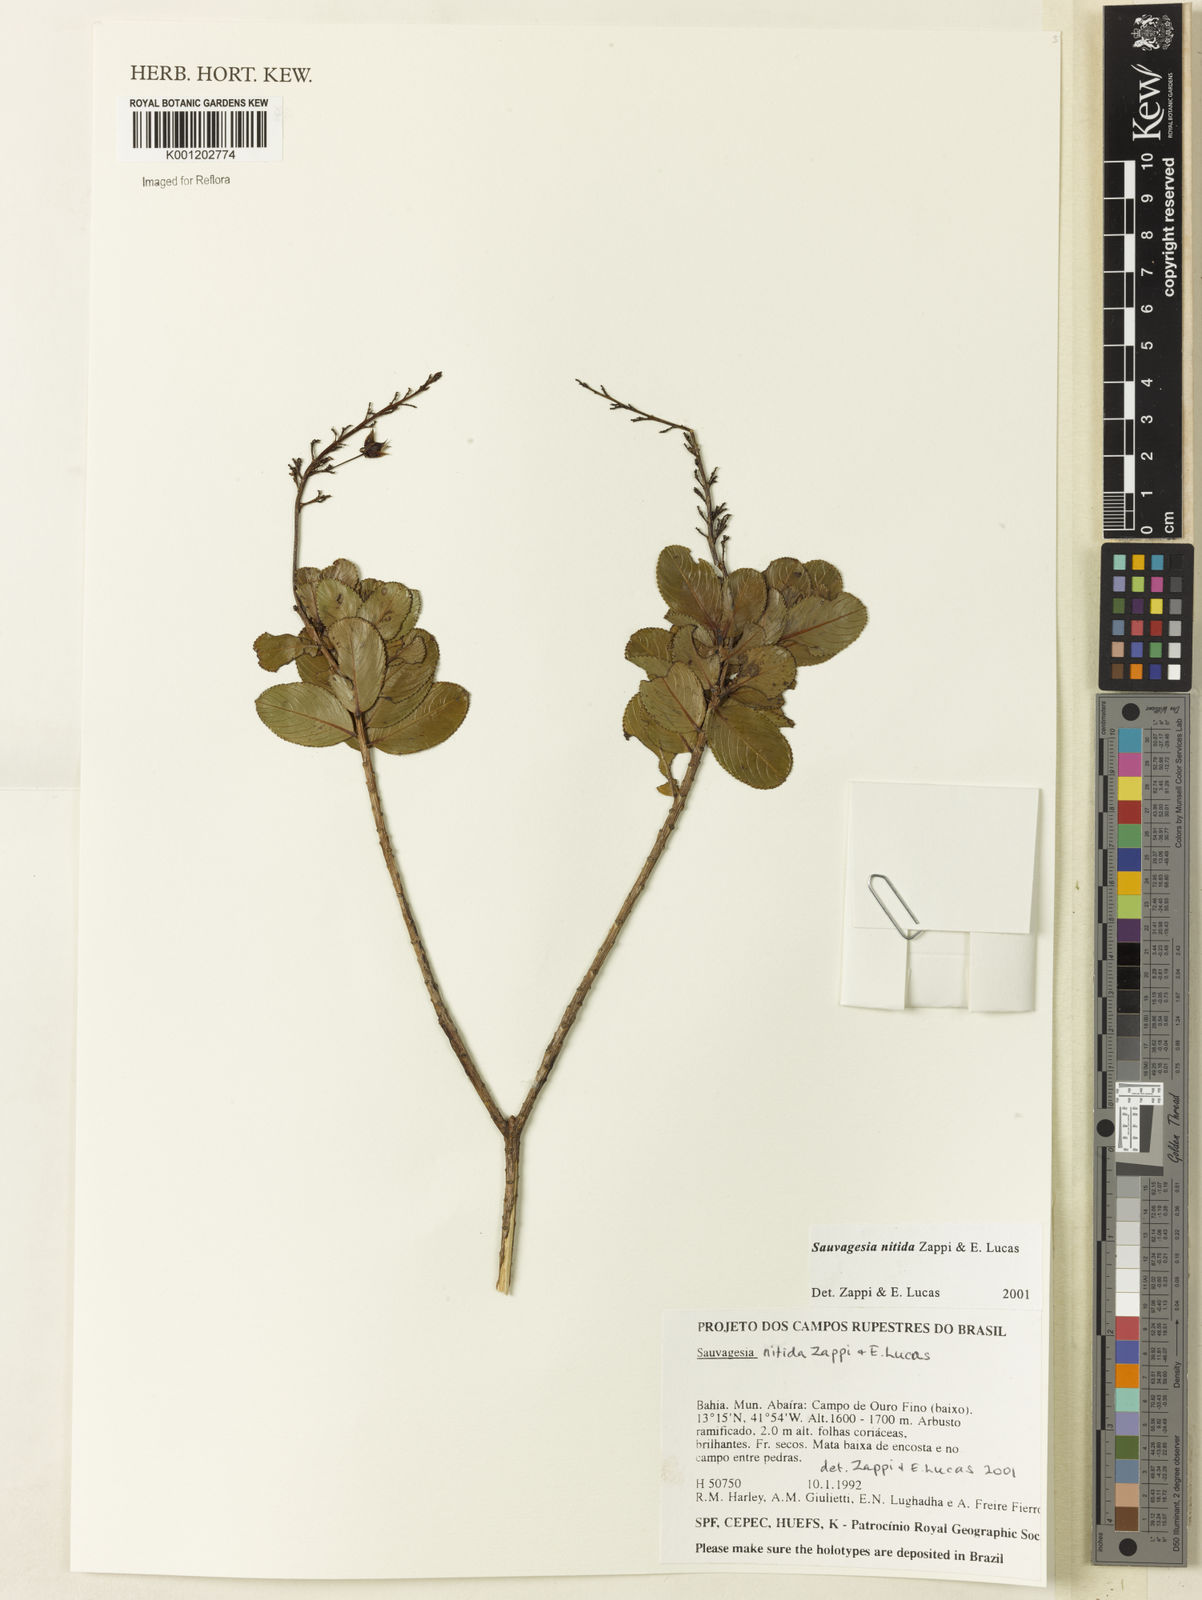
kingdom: Plantae
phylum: Tracheophyta
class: Magnoliopsida
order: Malpighiales
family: Ochnaceae
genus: Sauvagesia
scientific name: Sauvagesia nitida
